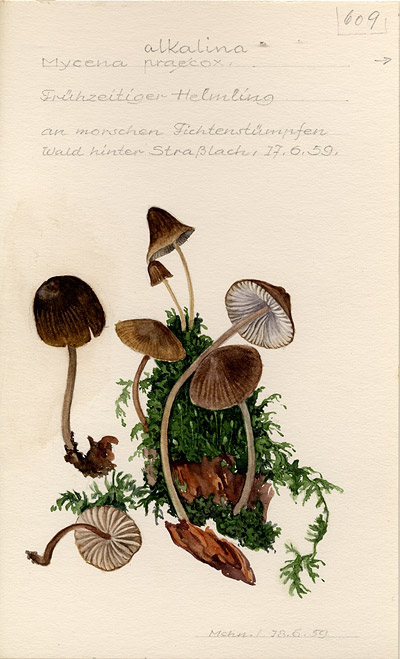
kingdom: Fungi
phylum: Basidiomycota
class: Agaricomycetes
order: Agaricales
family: Mycenaceae
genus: Mycena
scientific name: Mycena alcalina
